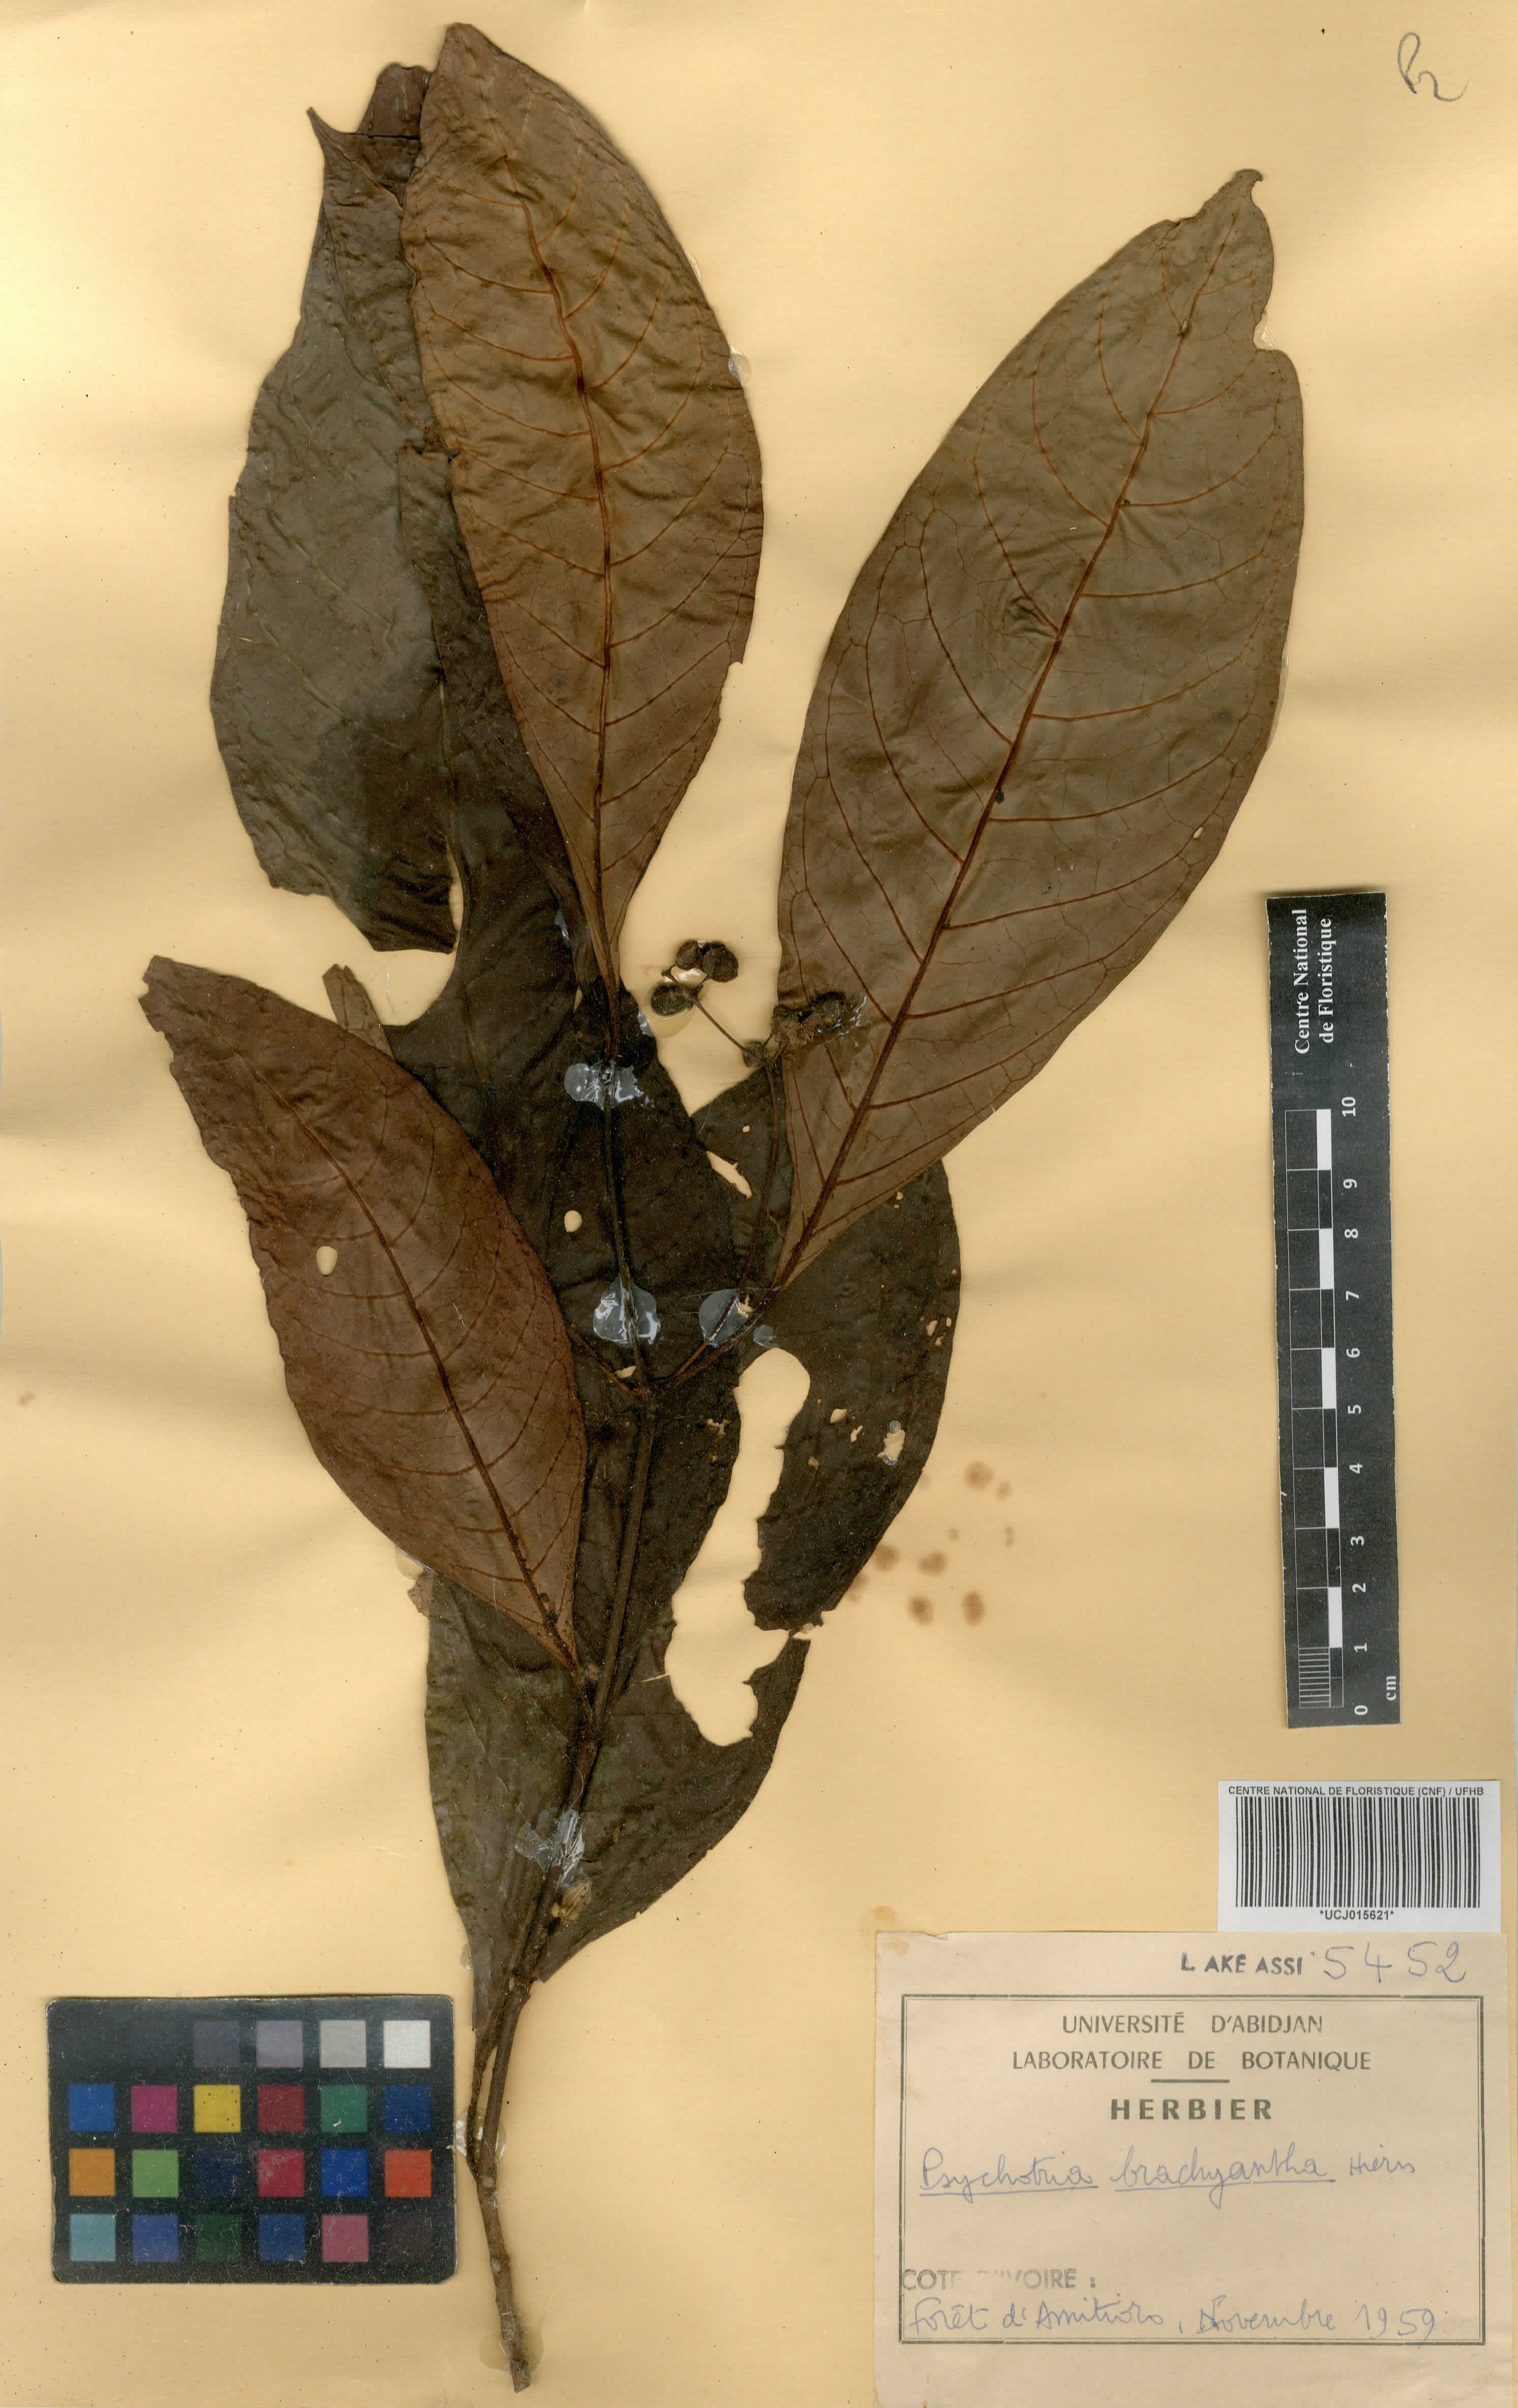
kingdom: Plantae
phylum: Tracheophyta
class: Magnoliopsida
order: Gentianales
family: Rubiaceae
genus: Psychotria
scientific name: Psychotria brachyantha
